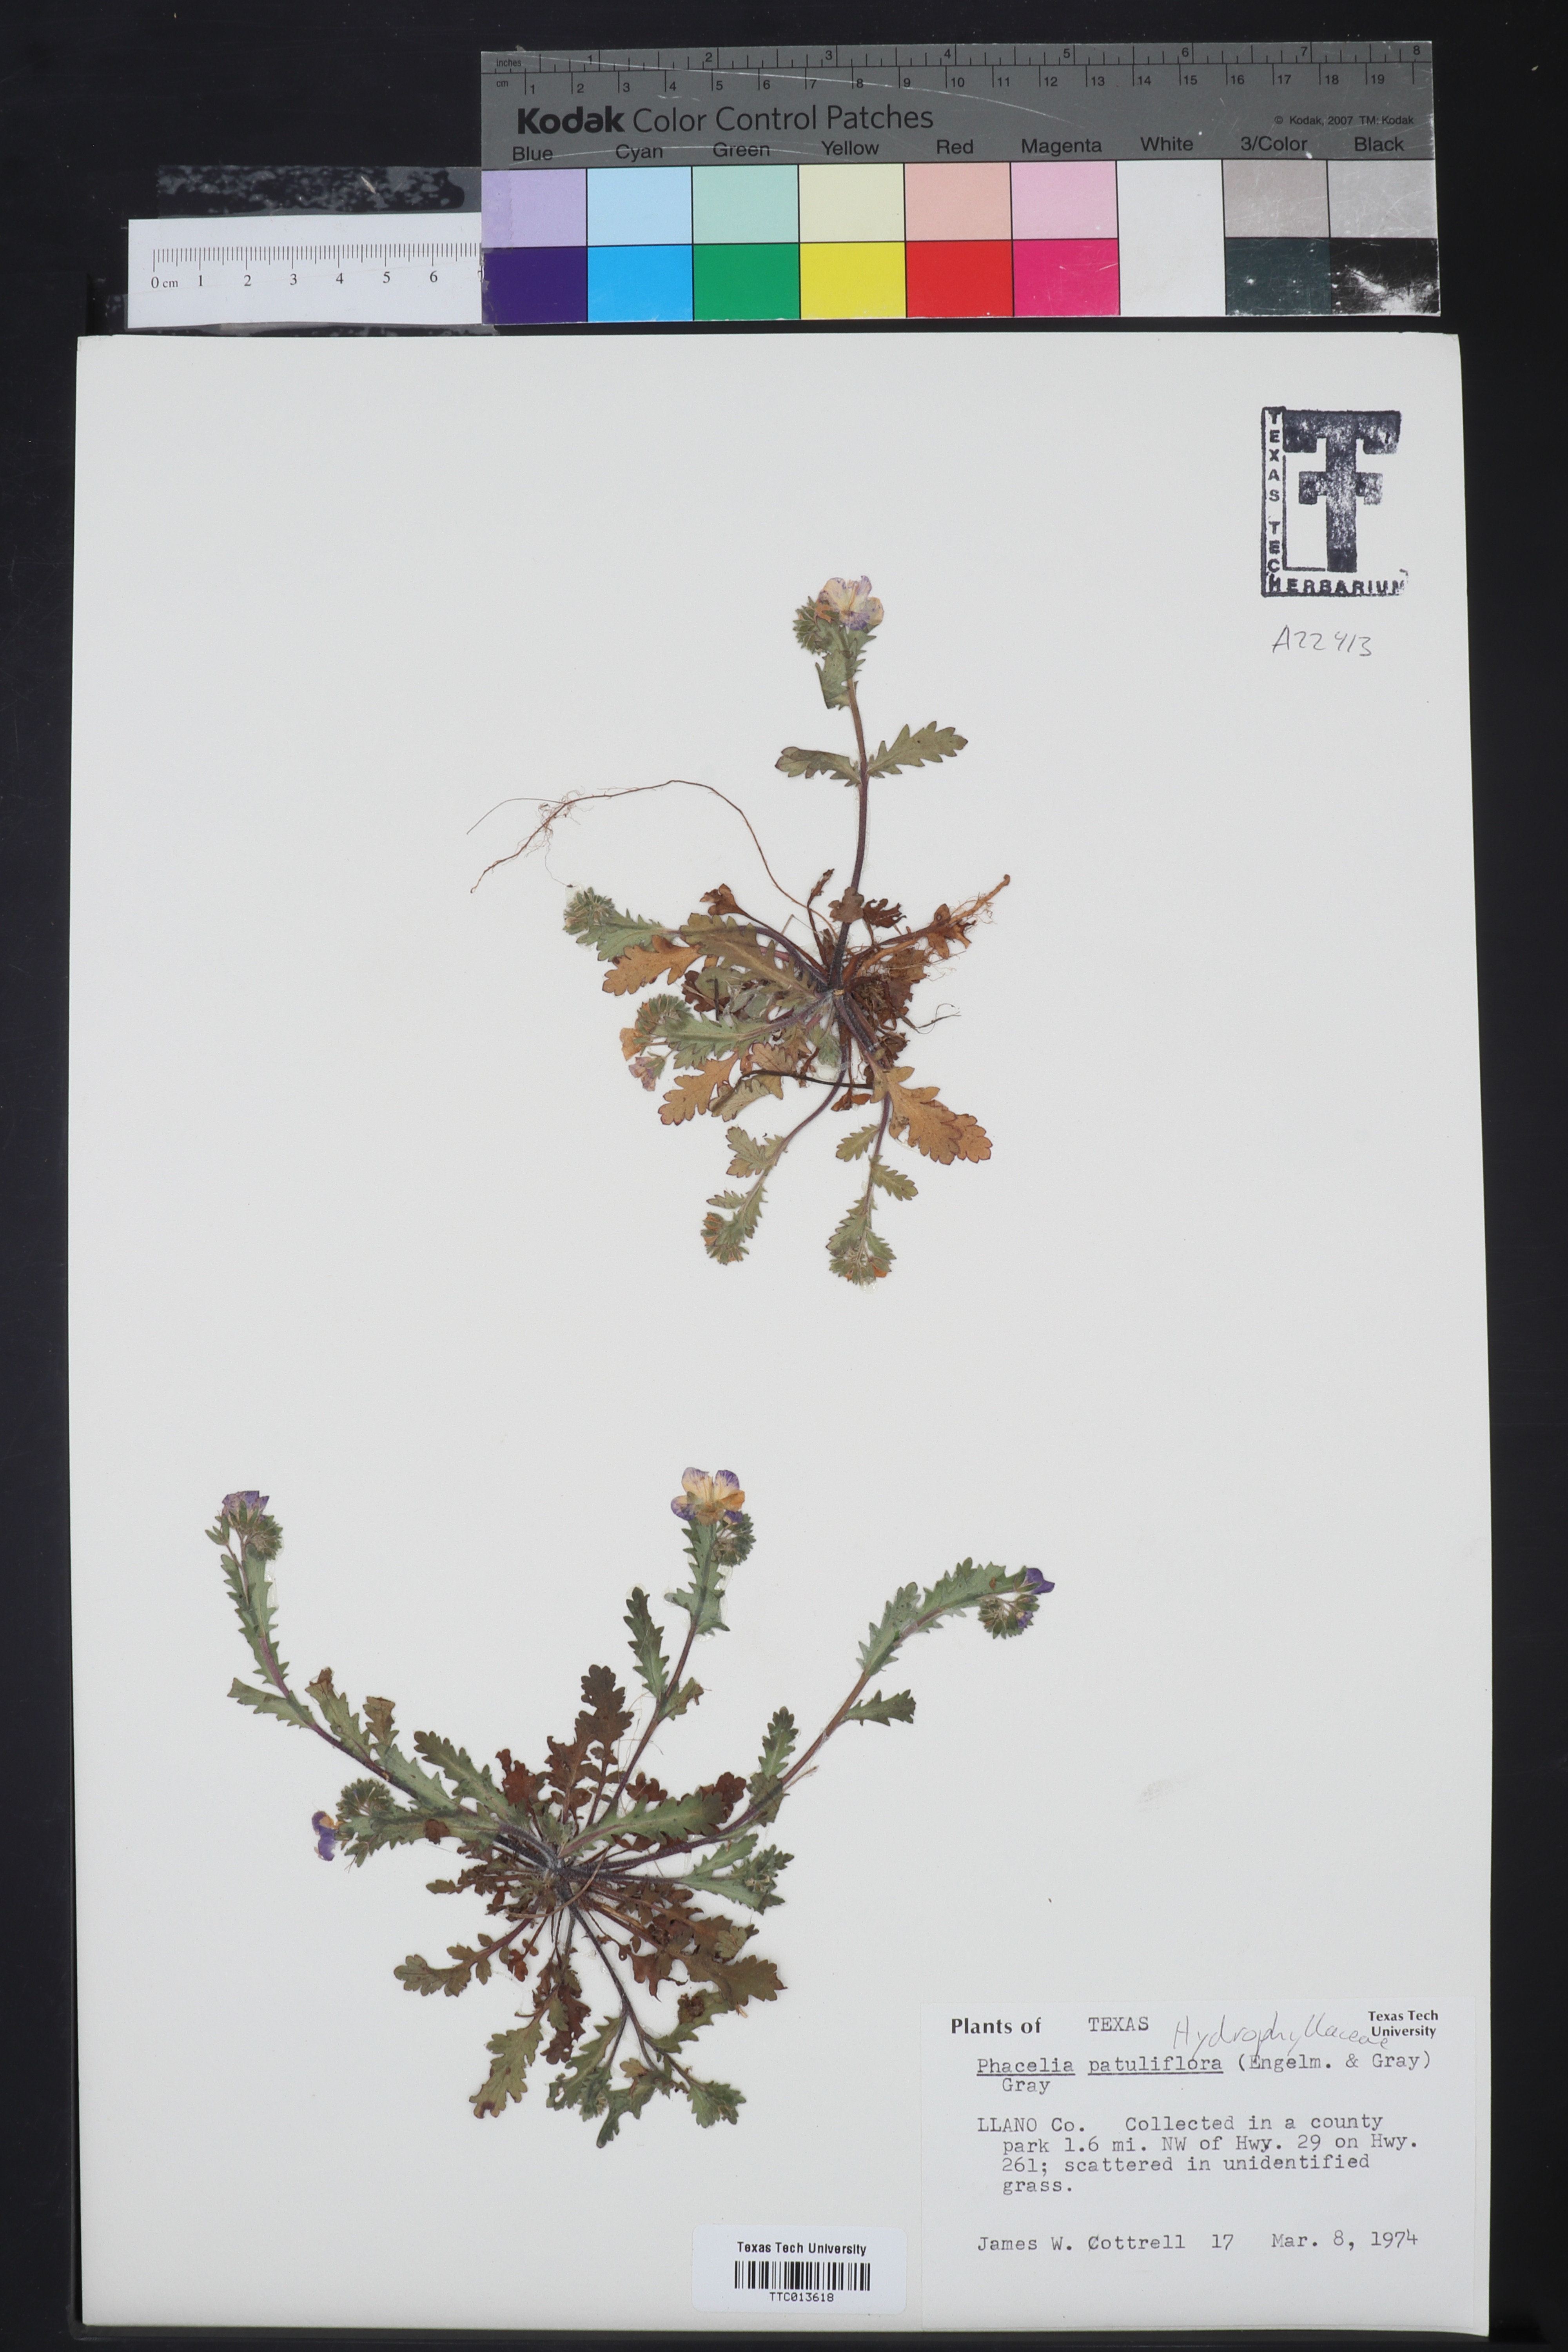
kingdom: Plantae
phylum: Tracheophyta
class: Magnoliopsida
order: Boraginales
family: Hydrophyllaceae
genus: Phacelia
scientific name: Phacelia patuliflora
